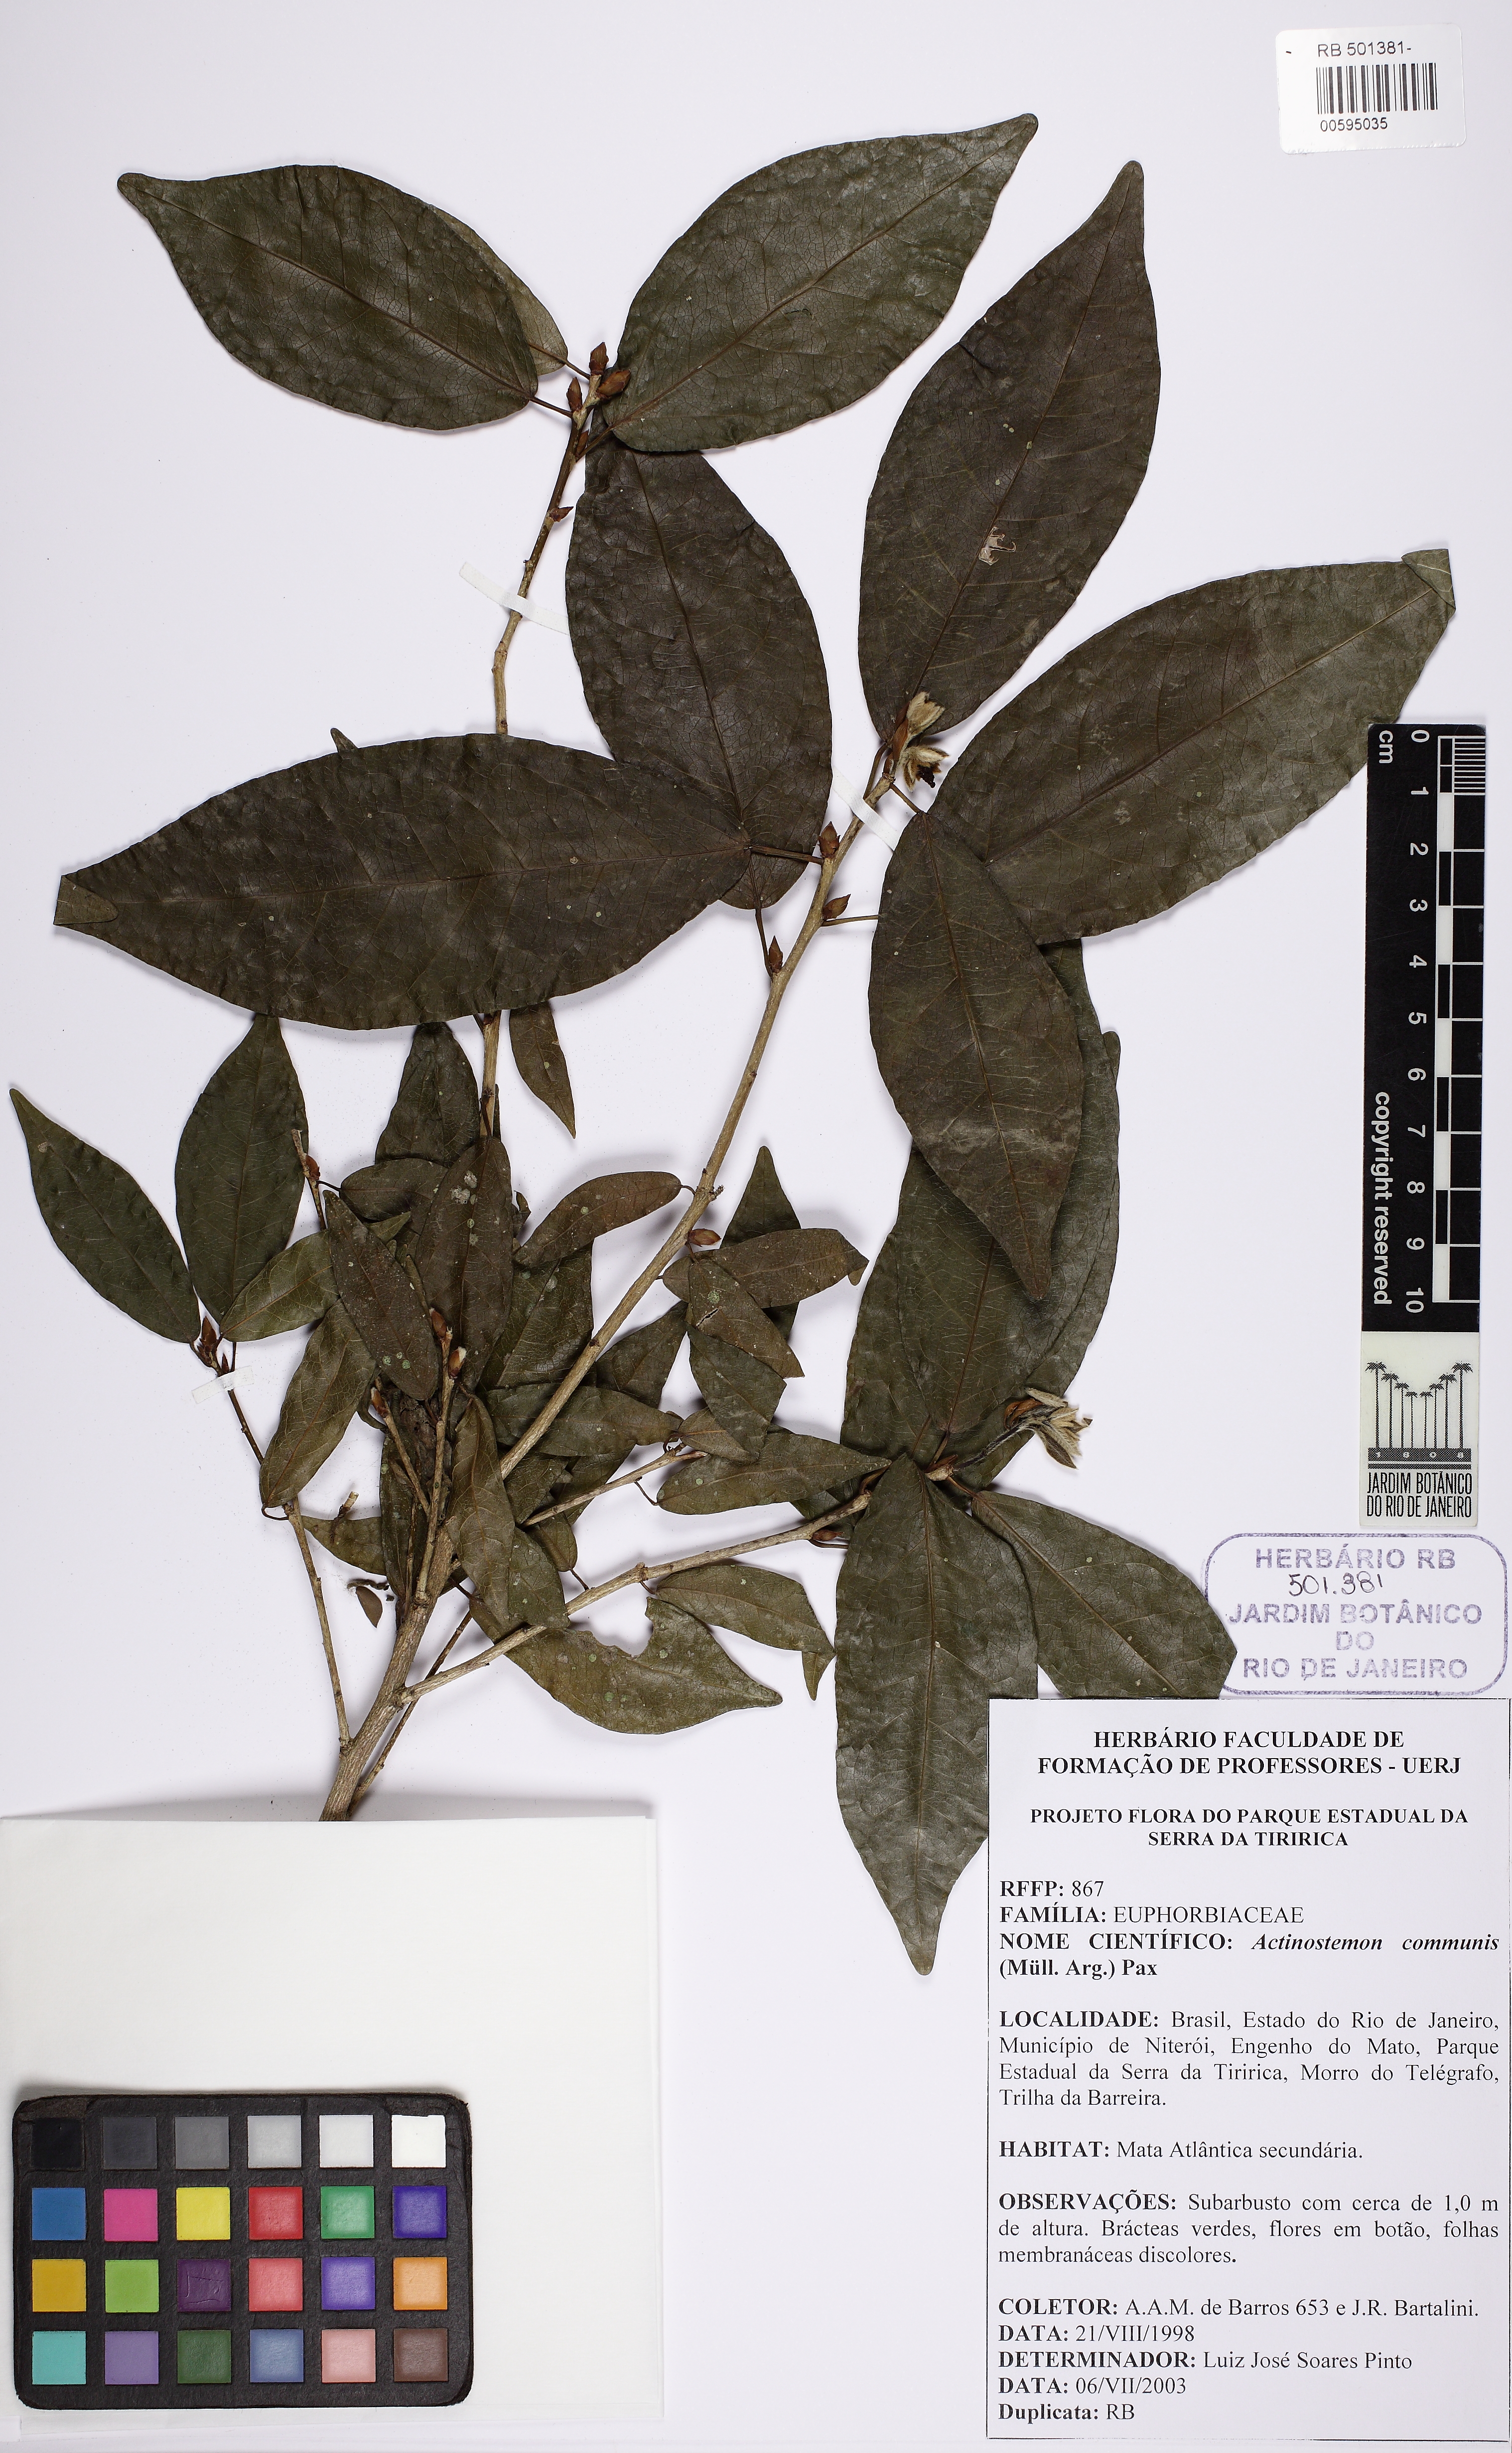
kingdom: Plantae
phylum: Tracheophyta
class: Magnoliopsida
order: Malpighiales
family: Euphorbiaceae
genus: Actinostemon
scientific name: Actinostemon klotzschii
